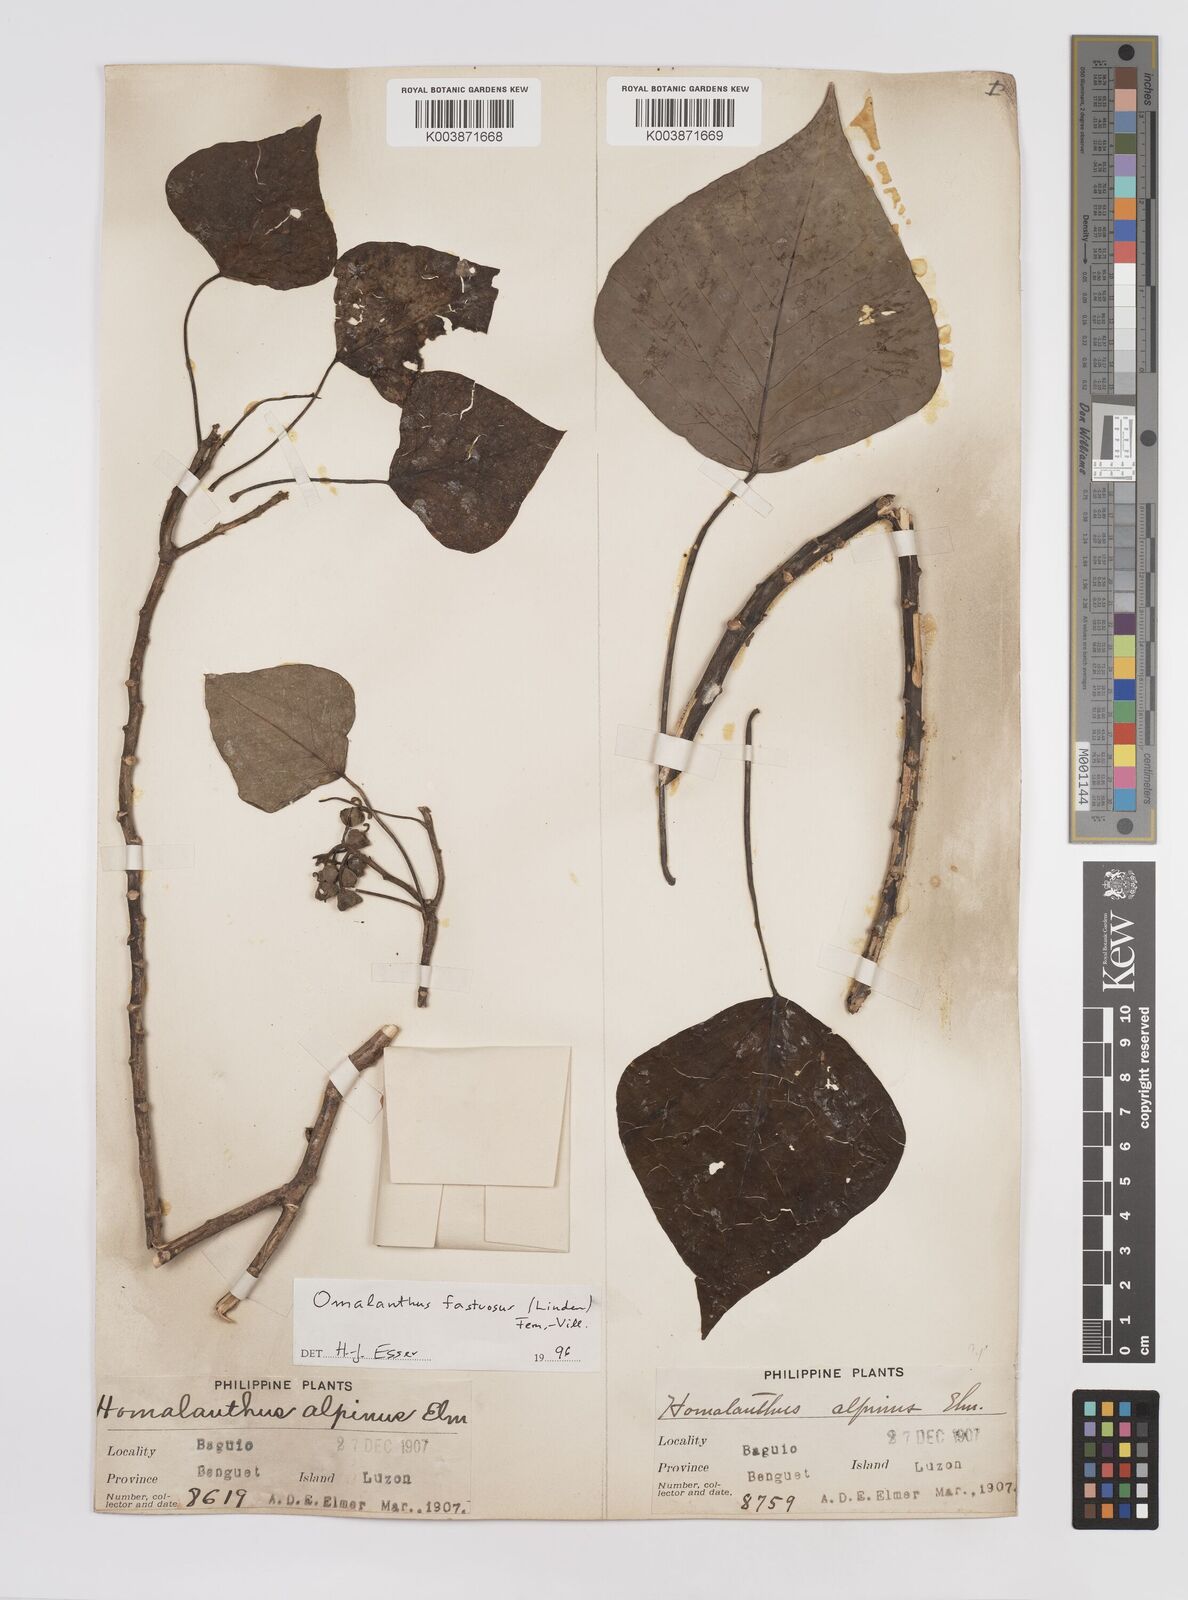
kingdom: Plantae
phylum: Tracheophyta
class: Magnoliopsida
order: Malpighiales
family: Euphorbiaceae
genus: Homalanthus
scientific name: Homalanthus fastuosus
